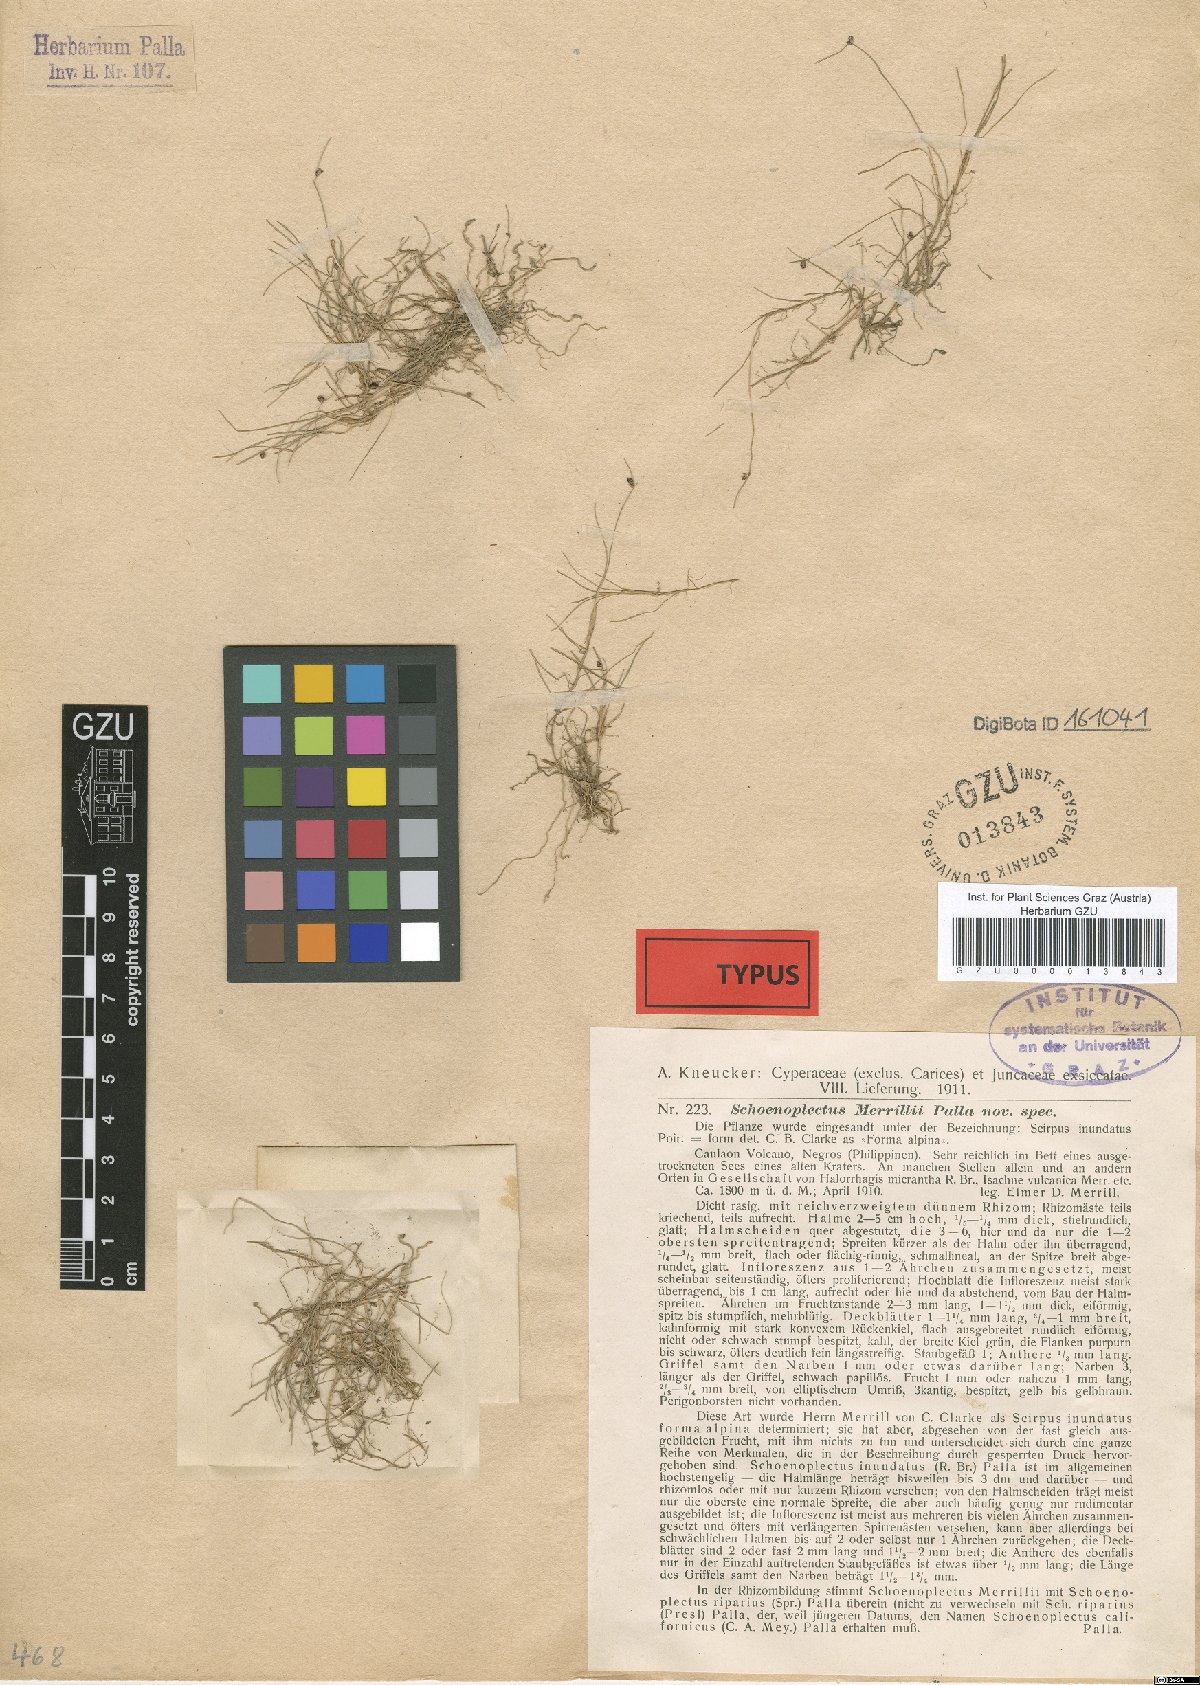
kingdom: Plantae
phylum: Tracheophyta
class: Liliopsida
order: Poales
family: Cyperaceae
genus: Isolepis
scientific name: Isolepis subtilissima
